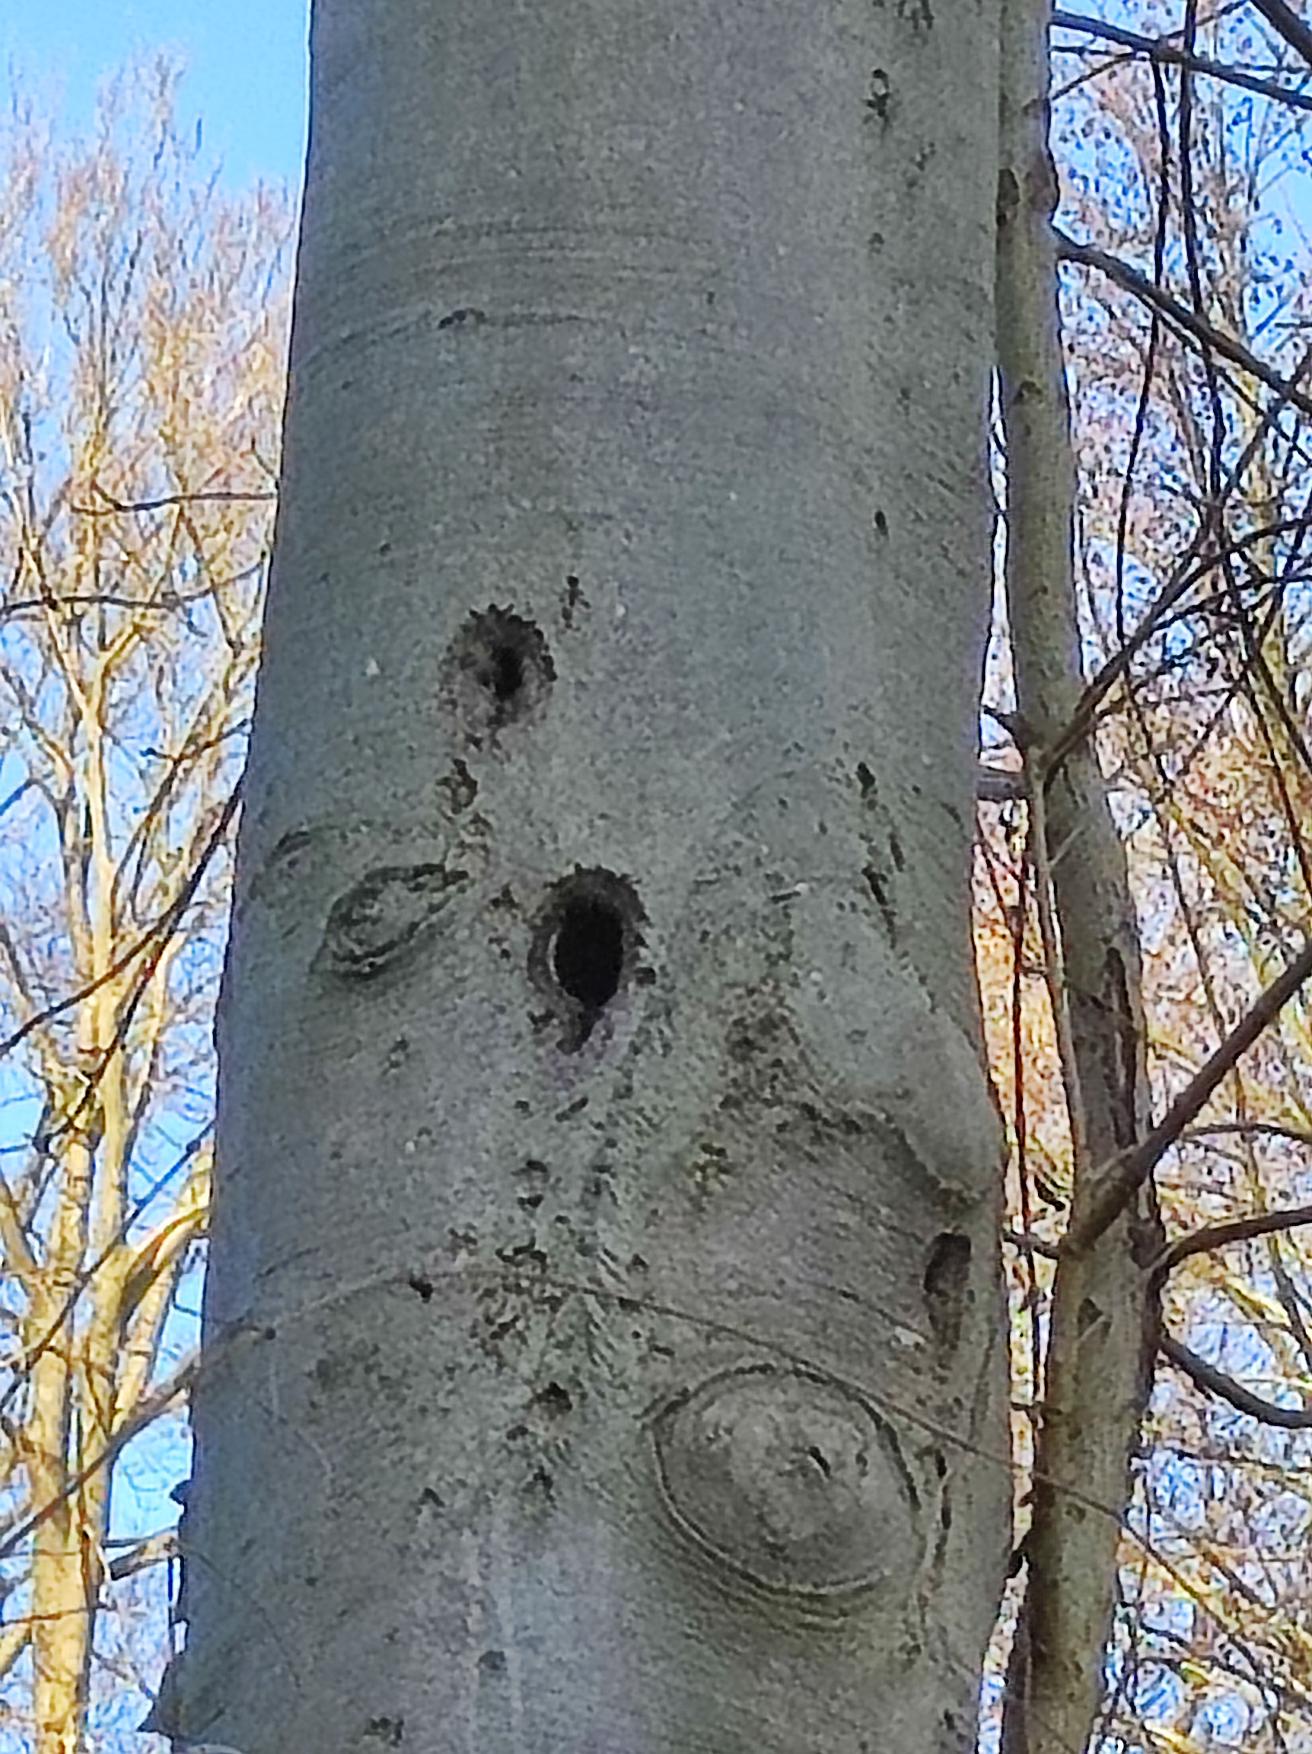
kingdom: Animalia
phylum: Chordata
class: Aves
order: Piciformes
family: Picidae
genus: Dendrocopos
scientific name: Dendrocopos major
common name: Stor flagspætte
